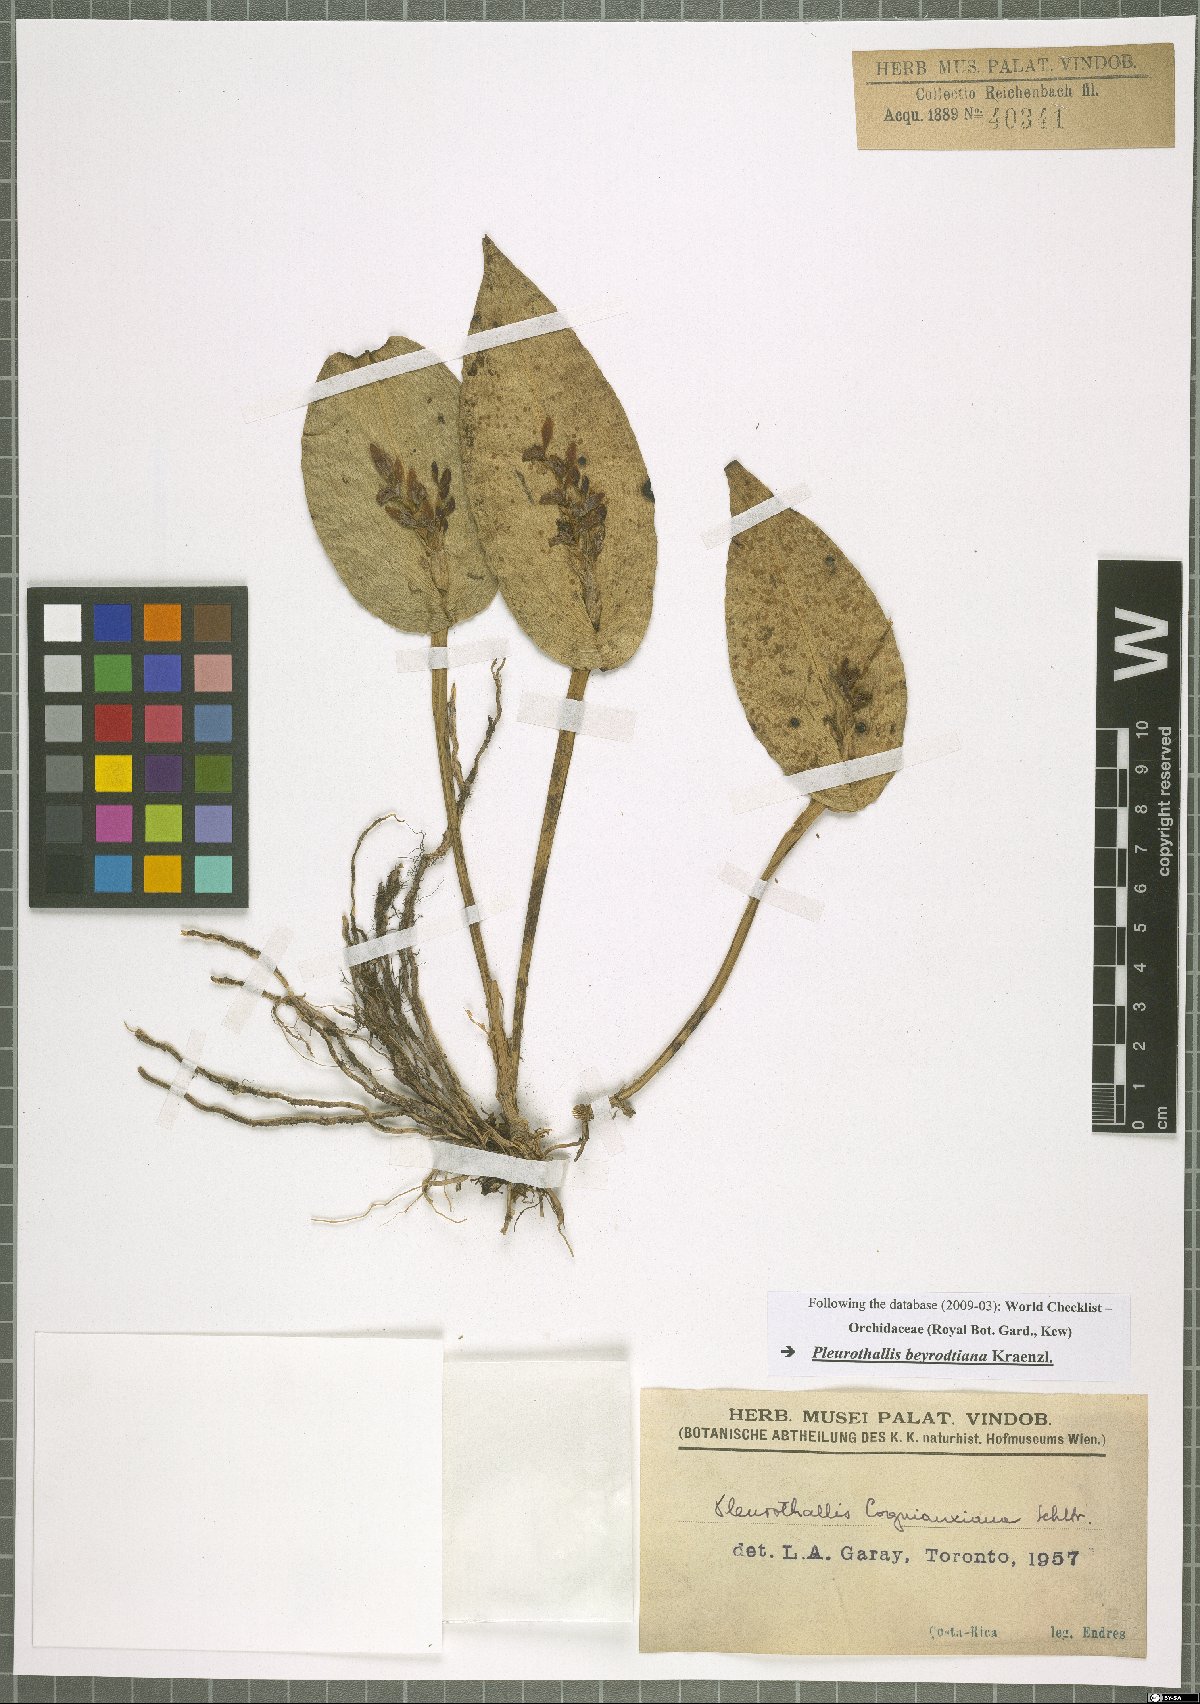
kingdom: Plantae
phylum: Tracheophyta
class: Liliopsida
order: Asparagales
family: Orchidaceae
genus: Acianthera
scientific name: Acianthera beyrodtiana
